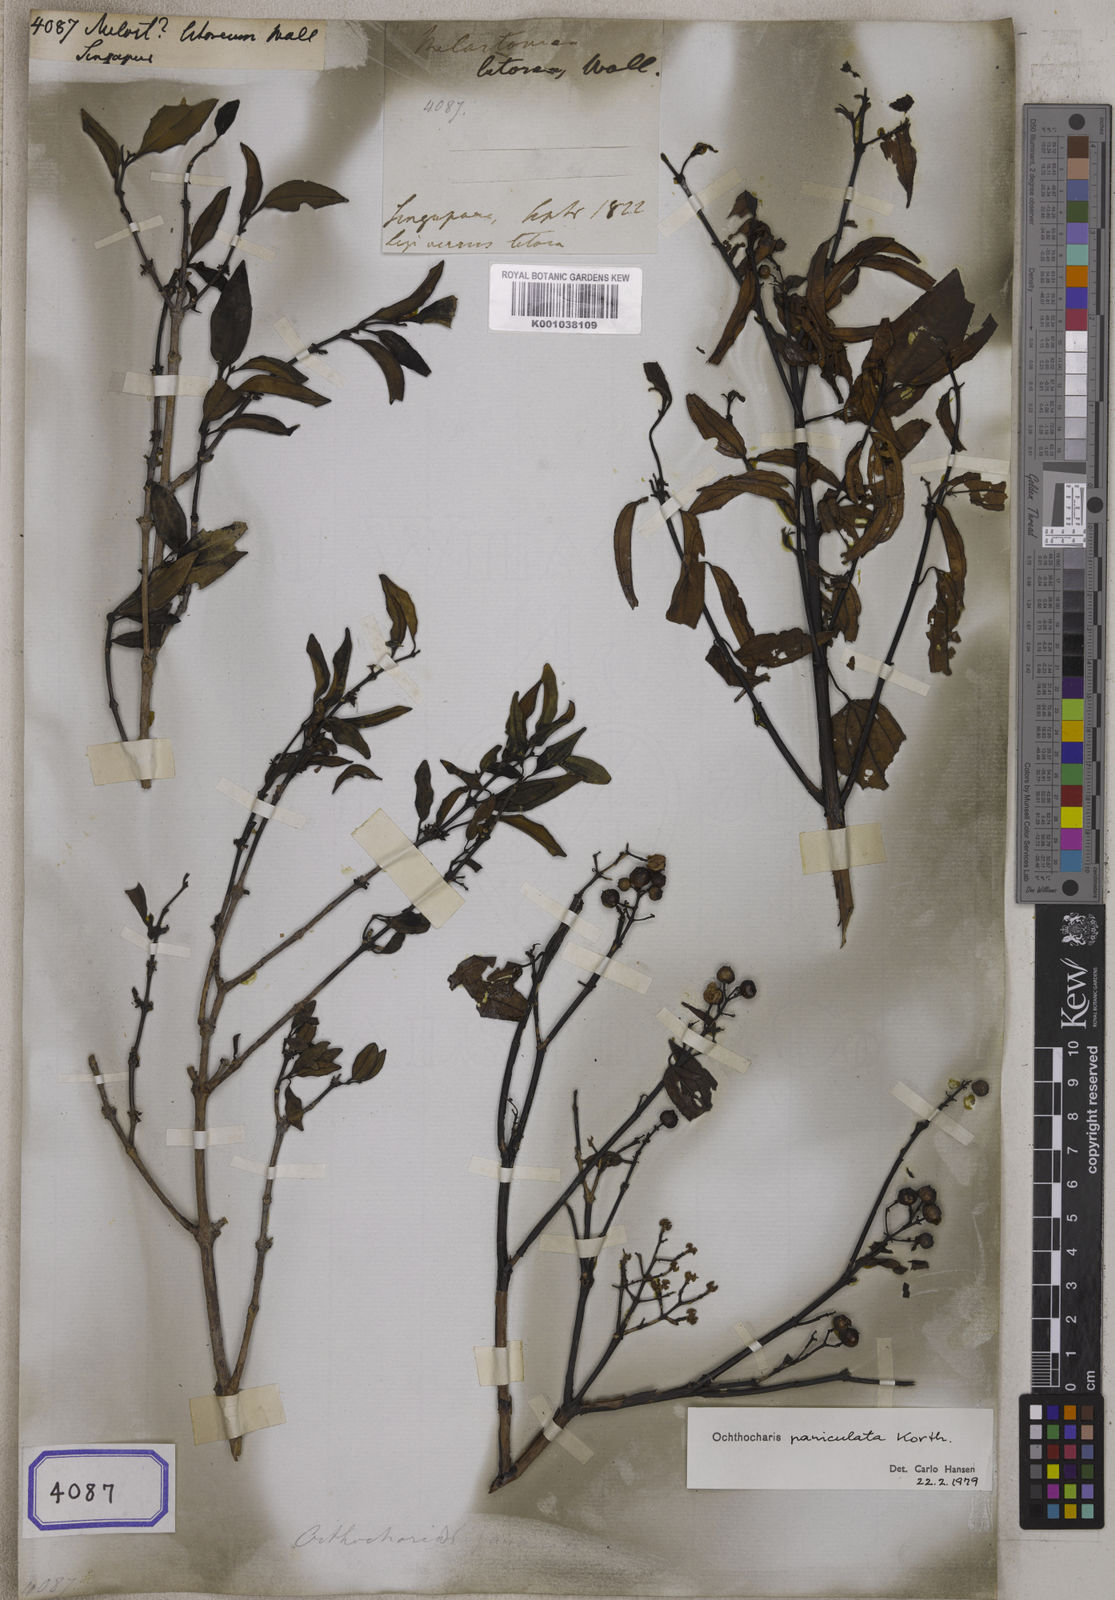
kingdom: Plantae
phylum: Tracheophyta
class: Magnoliopsida
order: Myrtales
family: Melastomataceae
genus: Melastoma
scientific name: Melastoma litoreum
